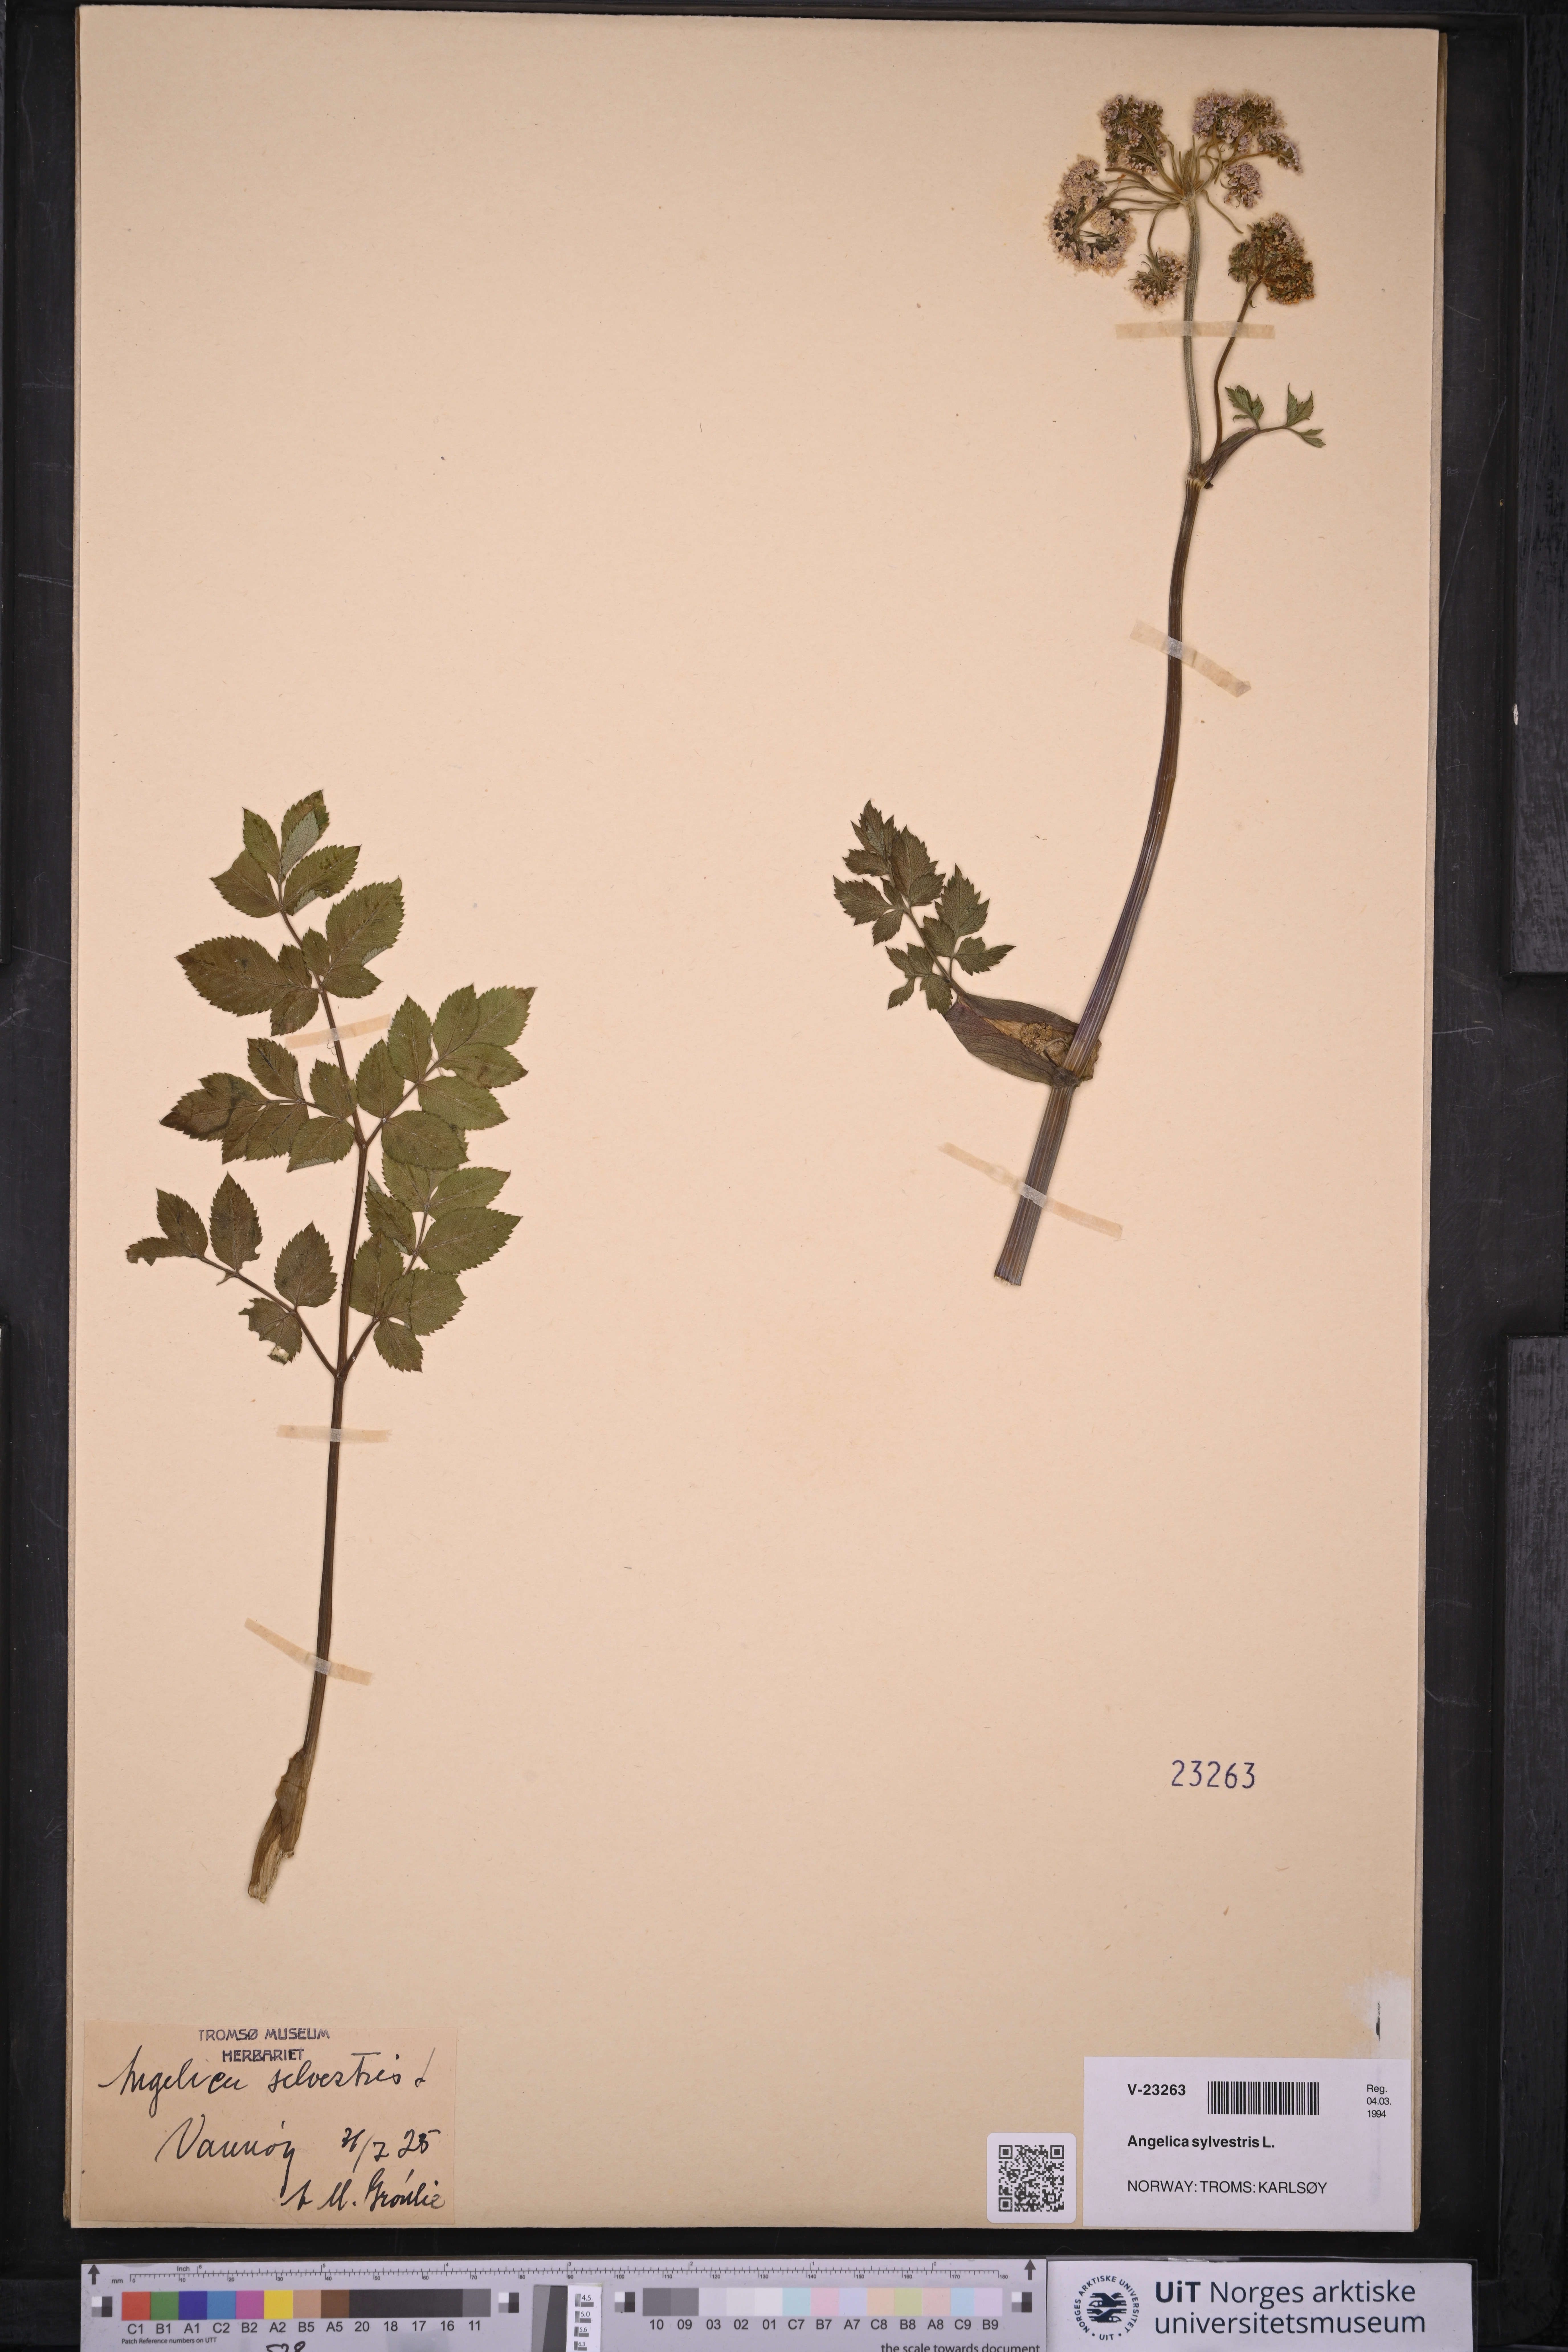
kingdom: Plantae
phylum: Tracheophyta
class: Magnoliopsida
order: Apiales
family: Apiaceae
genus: Angelica
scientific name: Angelica sylvestris
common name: Wild angelica
